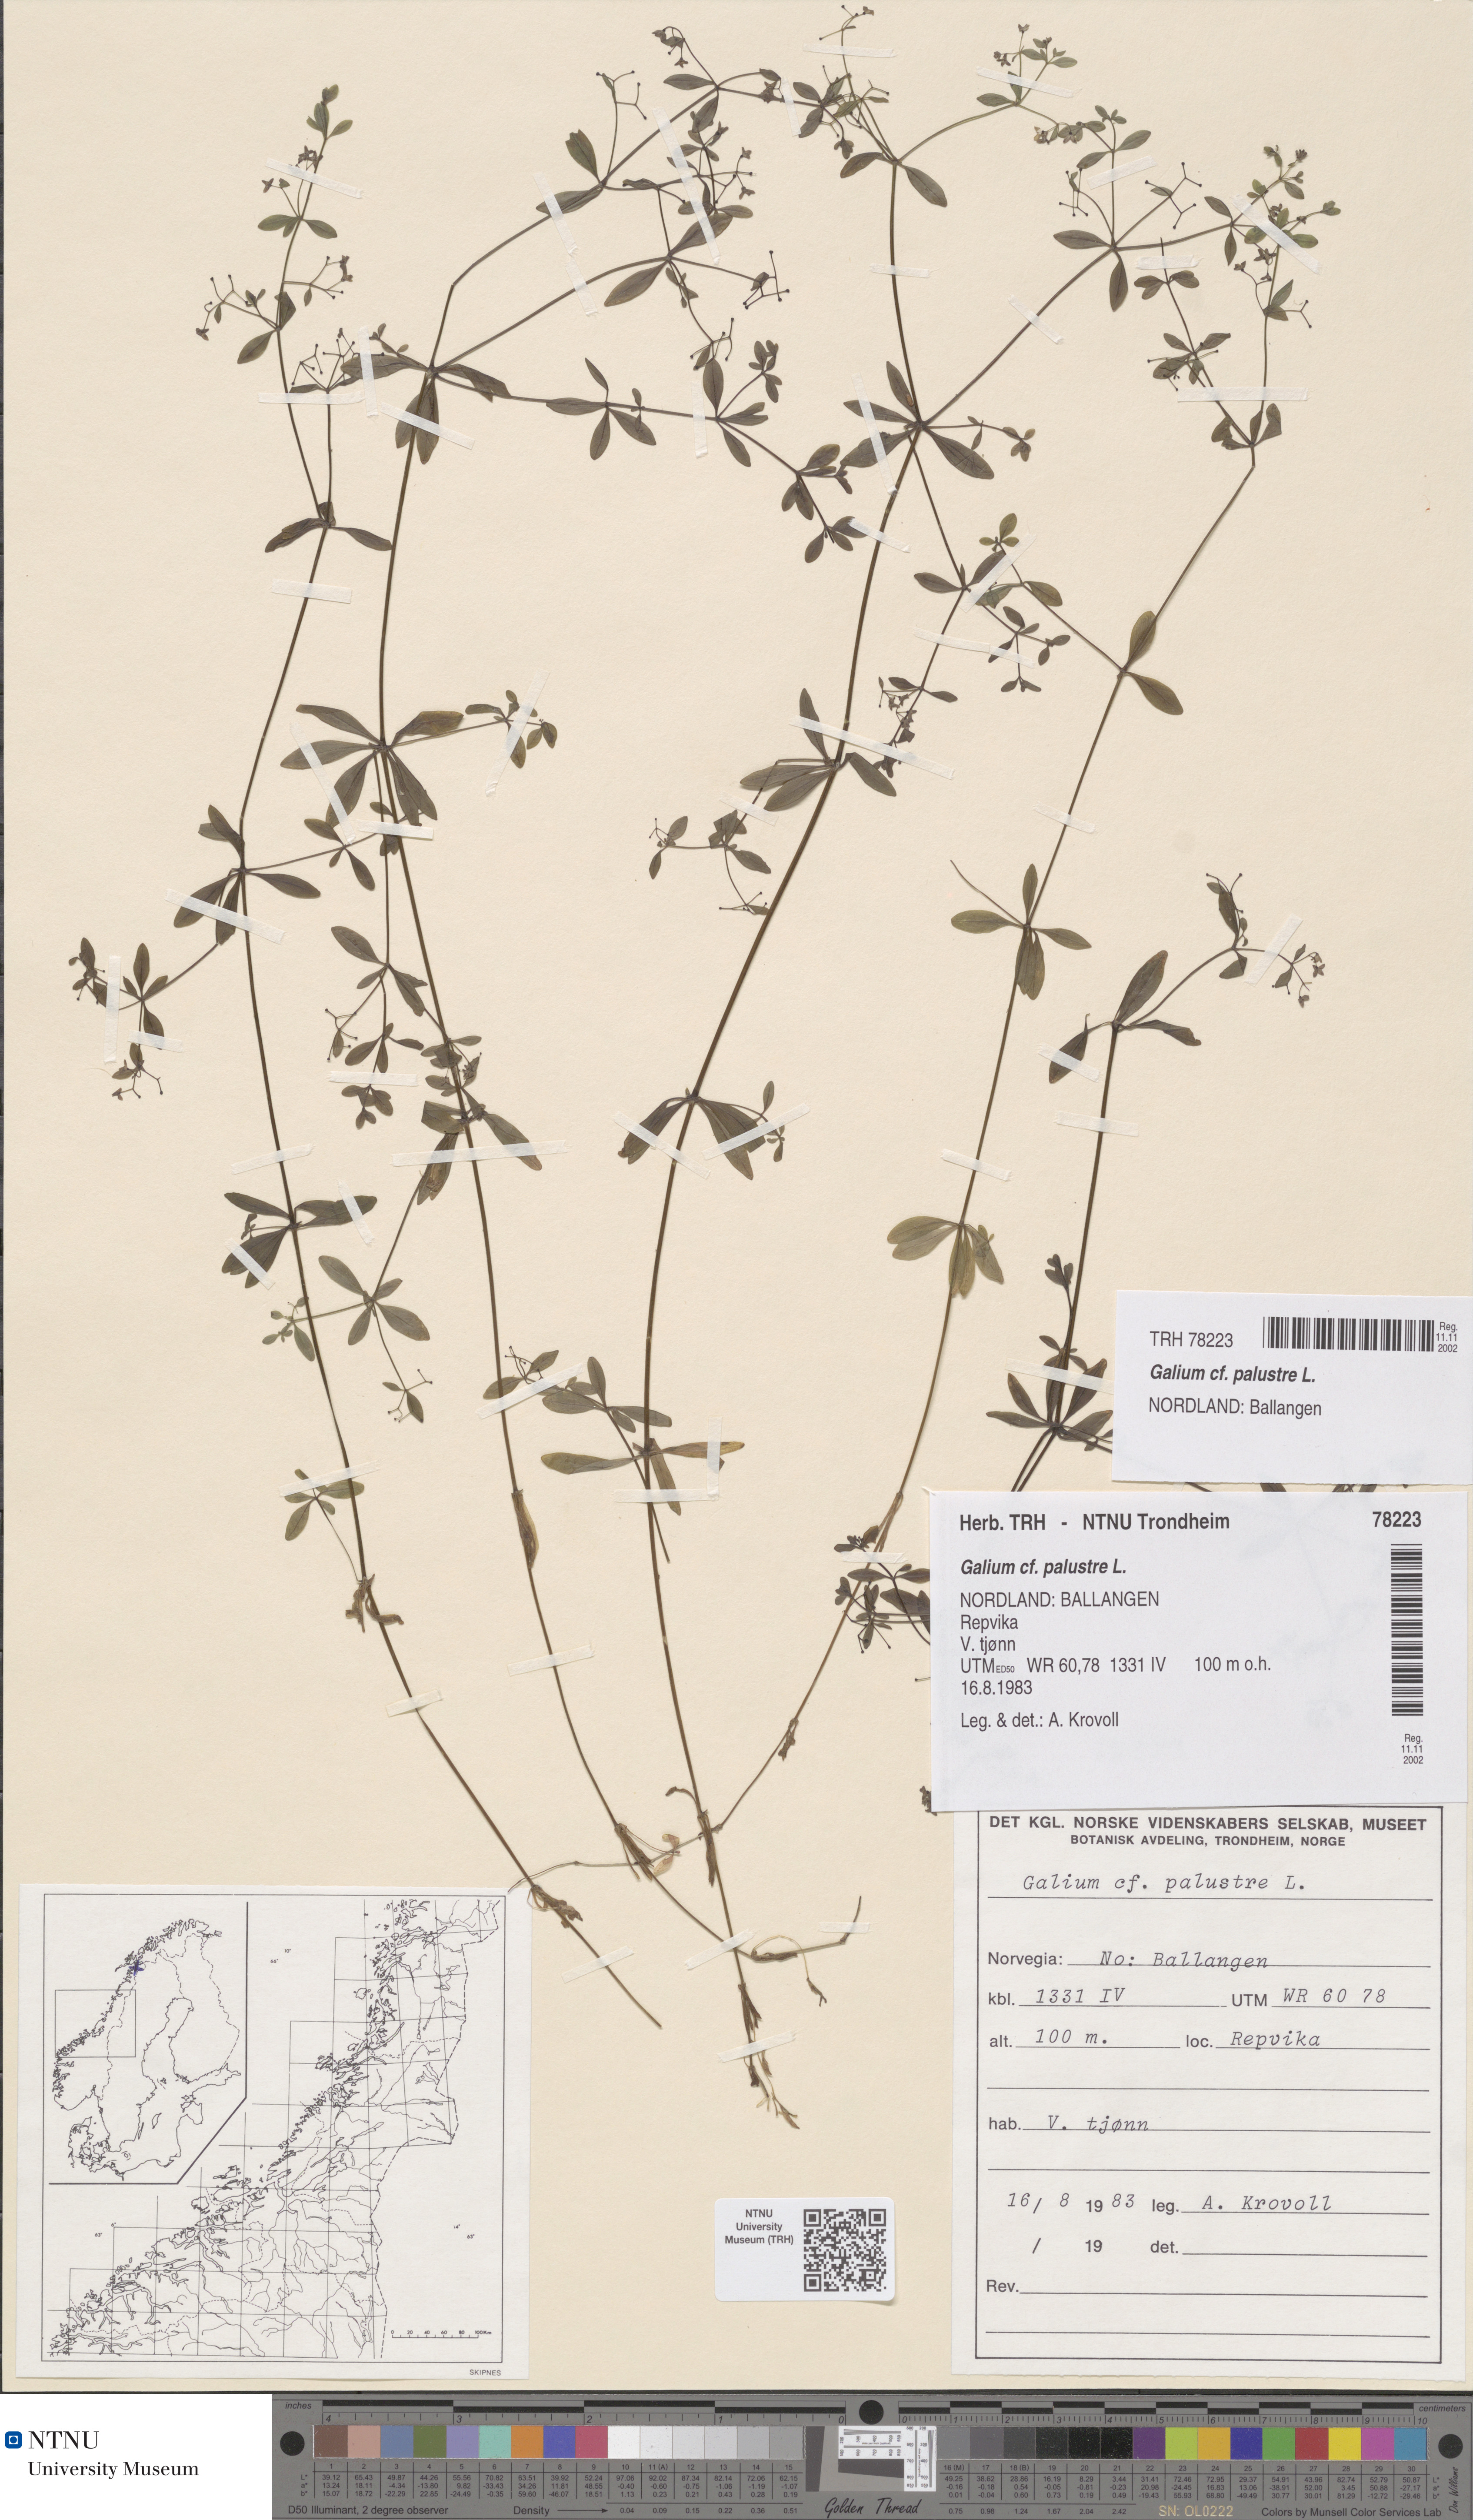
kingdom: Plantae
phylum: Tracheophyta
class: Magnoliopsida
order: Gentianales
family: Rubiaceae
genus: Galium
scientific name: Galium palustre
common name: Common marsh-bedstraw
